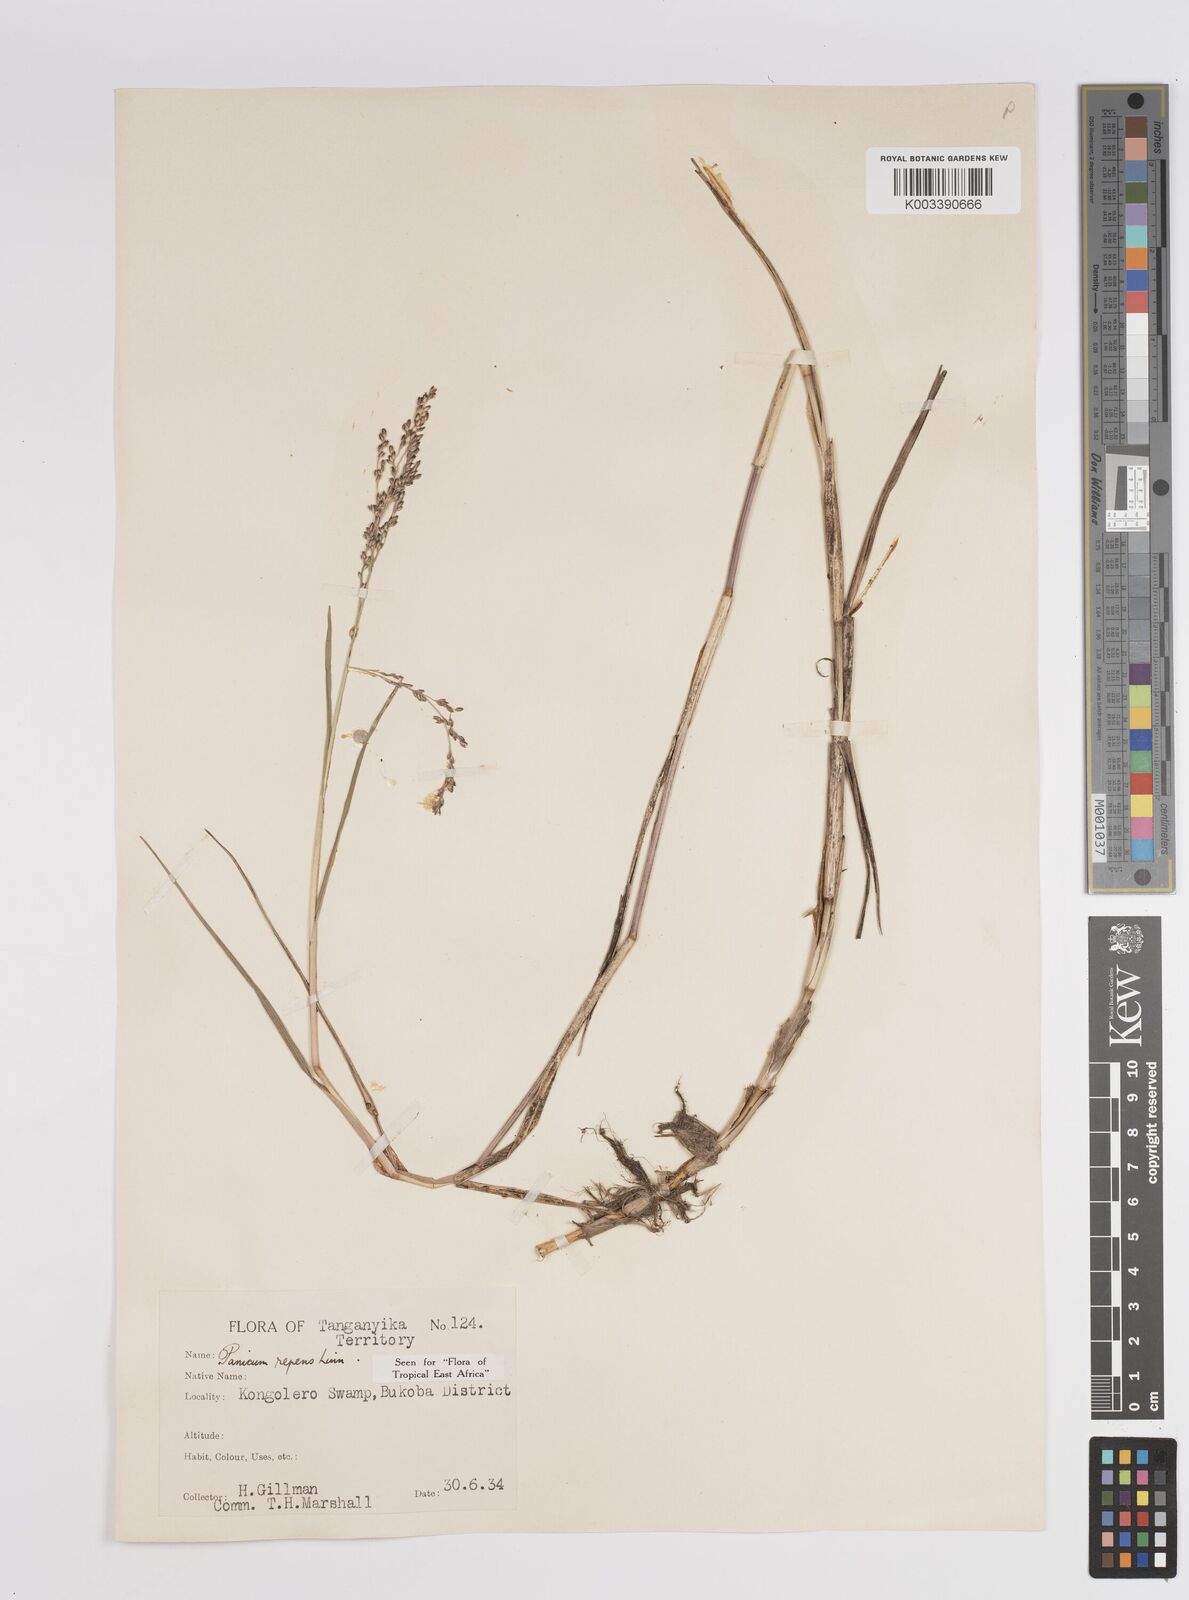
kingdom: Plantae
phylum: Tracheophyta
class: Liliopsida
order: Poales
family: Poaceae
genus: Panicum
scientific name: Panicum repens
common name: Torpedo grass
